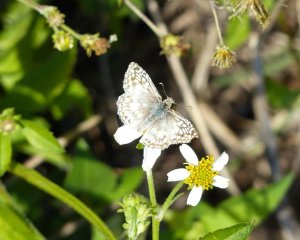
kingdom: Animalia
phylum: Arthropoda
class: Insecta
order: Lepidoptera
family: Hesperiidae
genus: Pyrgus
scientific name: Pyrgus oileus
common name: Tropical Checkered-Skipper
